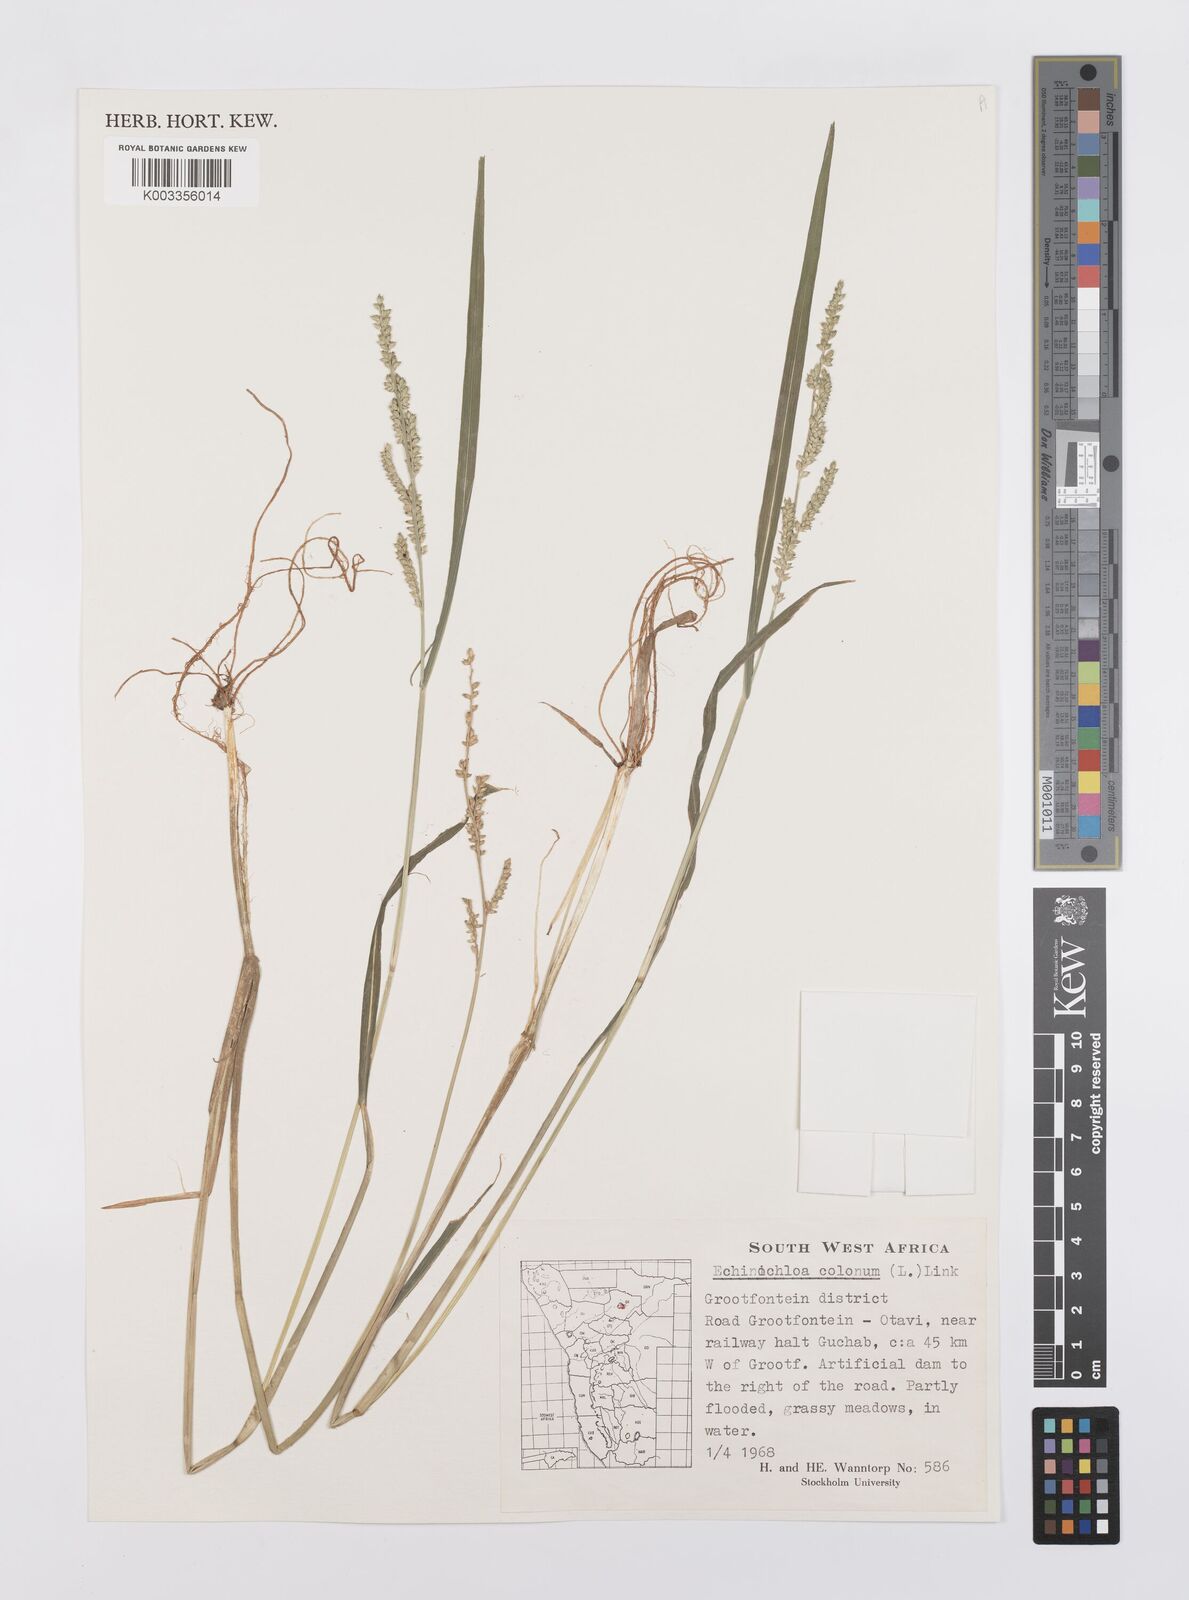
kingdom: Plantae
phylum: Tracheophyta
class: Liliopsida
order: Poales
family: Poaceae
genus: Echinochloa
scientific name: Echinochloa colonum
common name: Jungle rice
